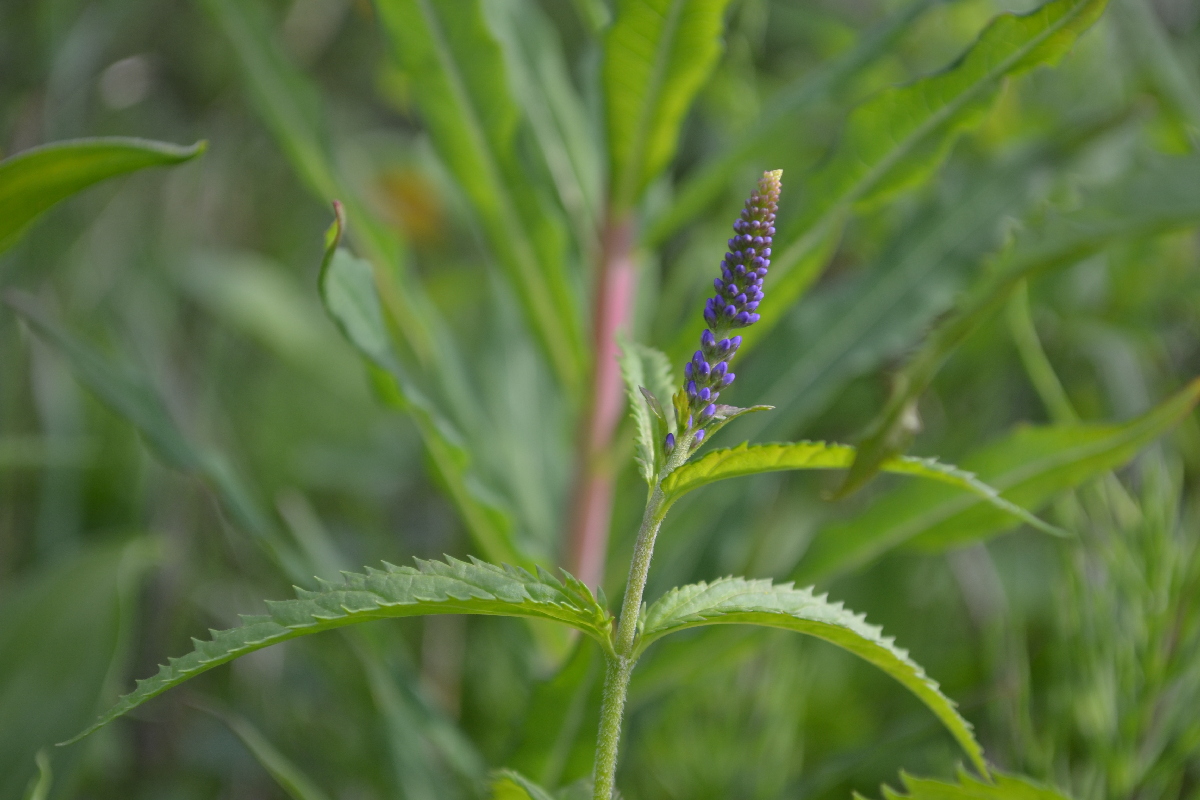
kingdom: Plantae
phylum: Tracheophyta
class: Magnoliopsida
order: Lamiales
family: Plantaginaceae
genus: Veronica
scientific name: Veronica longifolia
